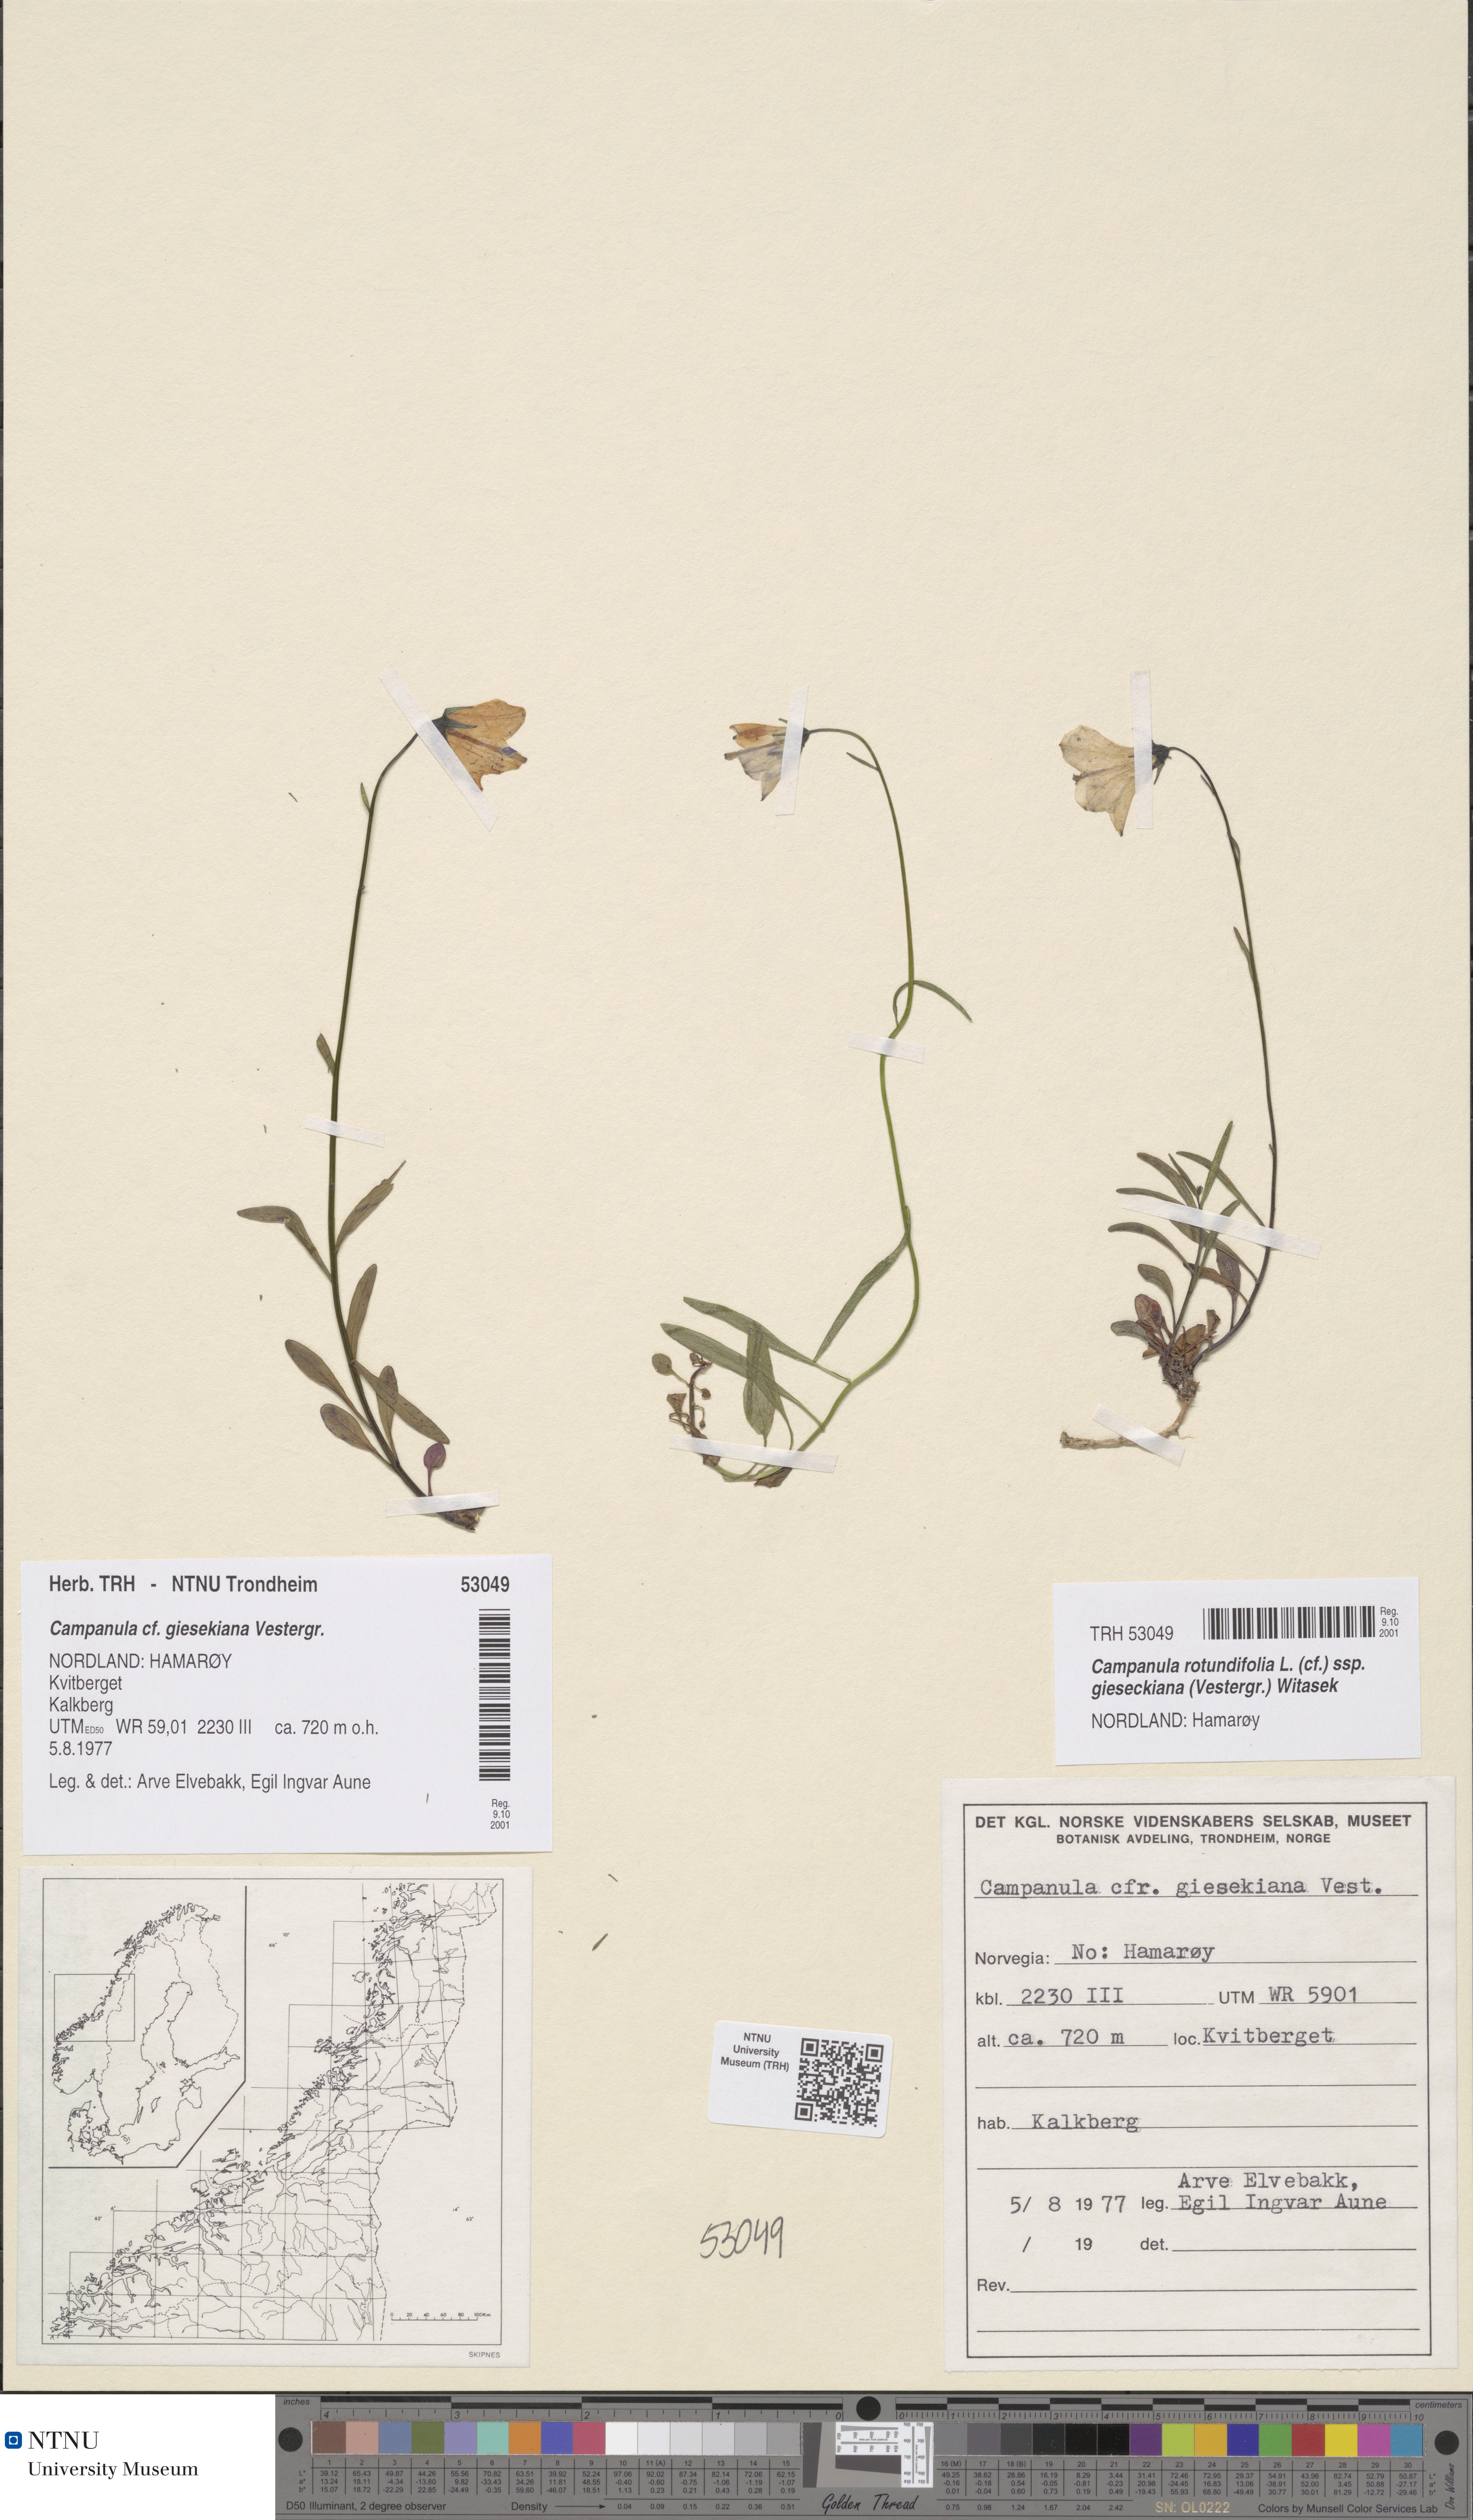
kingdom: Plantae
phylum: Tracheophyta
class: Magnoliopsida
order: Asterales
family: Campanulaceae
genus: Campanula
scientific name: Campanula rotundifolia
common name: Harebell
